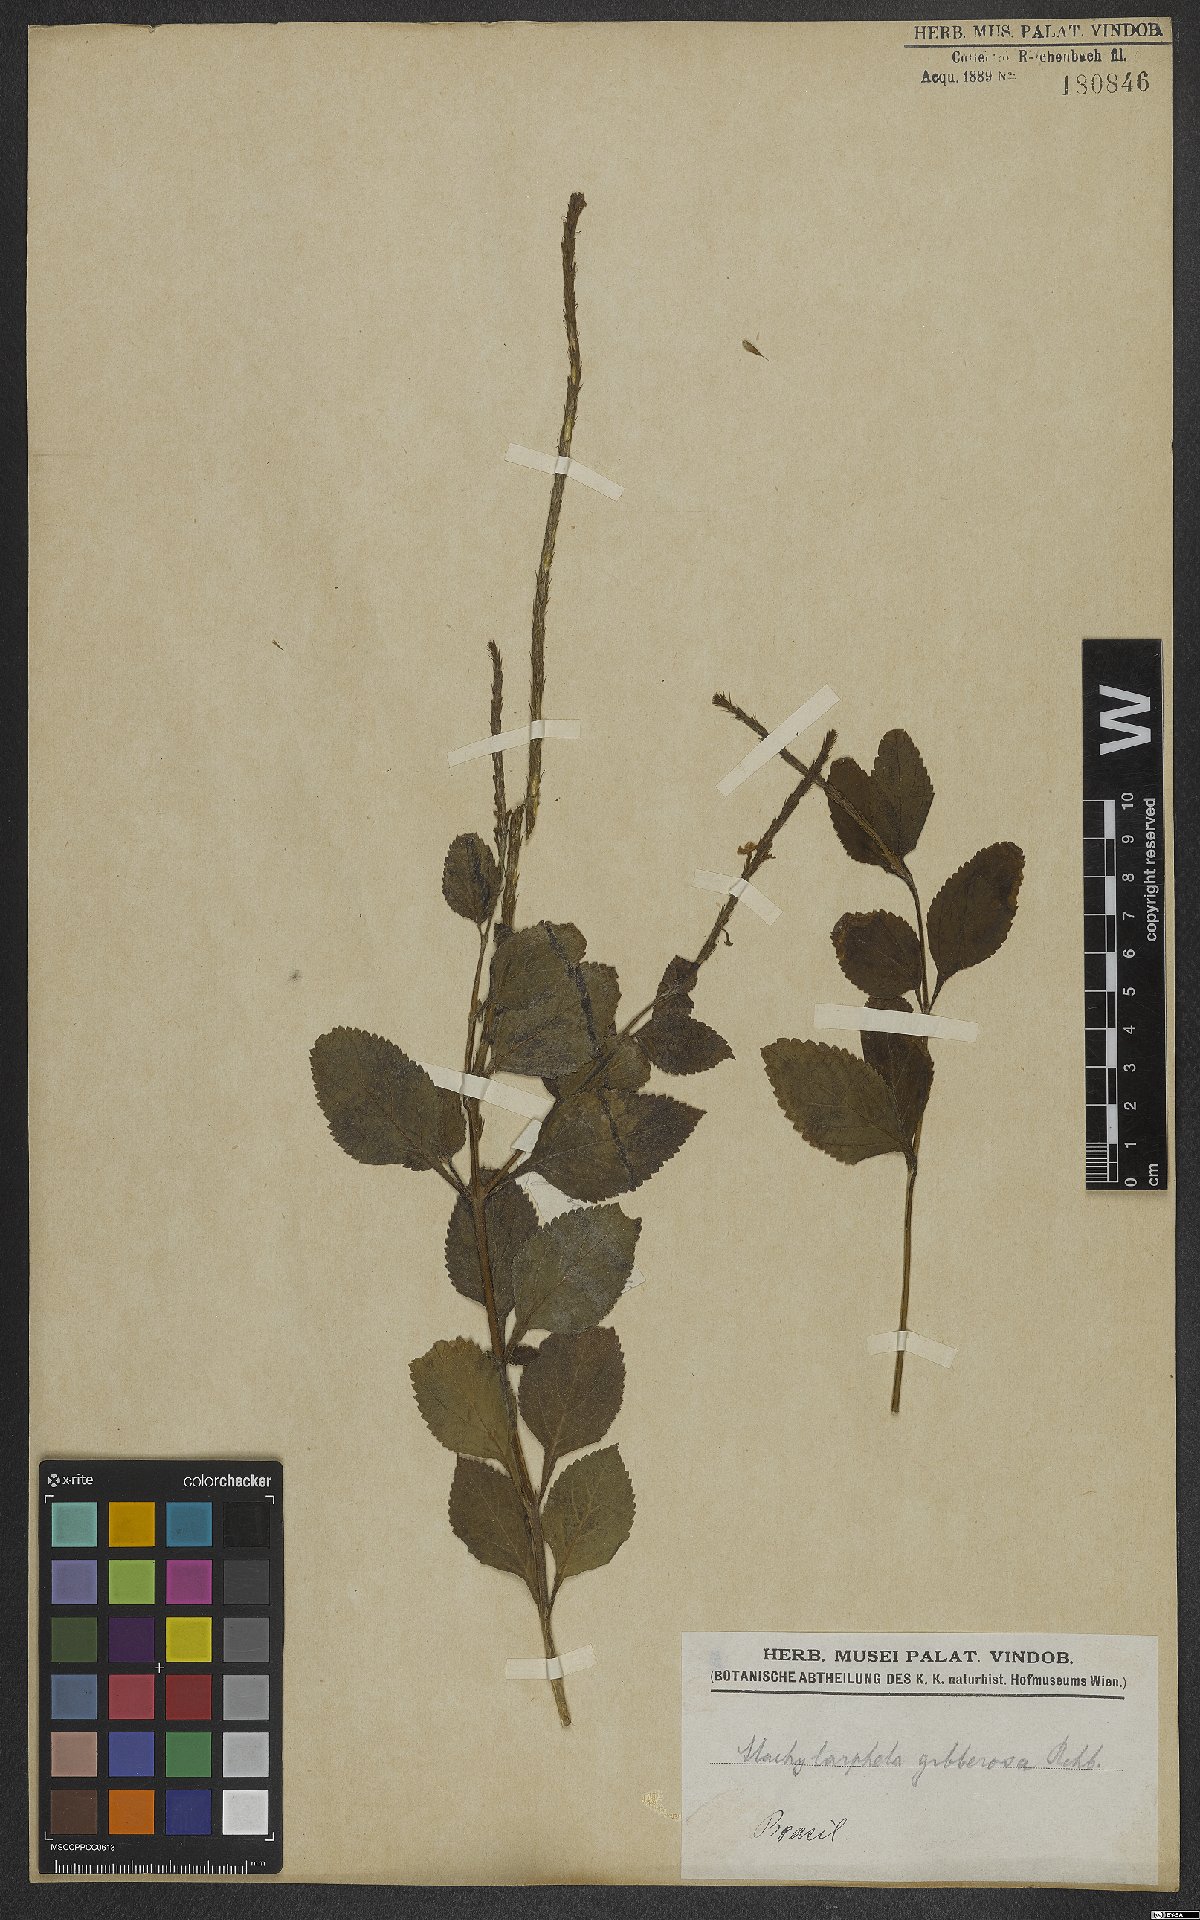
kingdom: Plantae
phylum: Tracheophyta
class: Magnoliopsida
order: Lamiales
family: Verbenaceae
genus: Stachytarpheta
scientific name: Stachytarpheta cayennensis
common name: Cayenne porterweed
